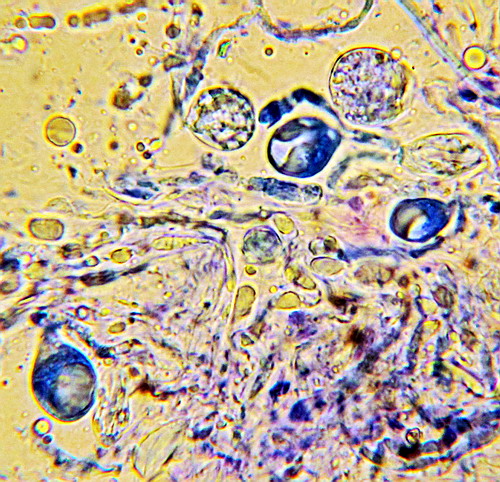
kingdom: Fungi
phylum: Basidiomycota
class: Agaricomycetes
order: Sebacinales
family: Sebacinaceae
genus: Sebacina
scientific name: Sebacina incrustans
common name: krybende bævretalg
